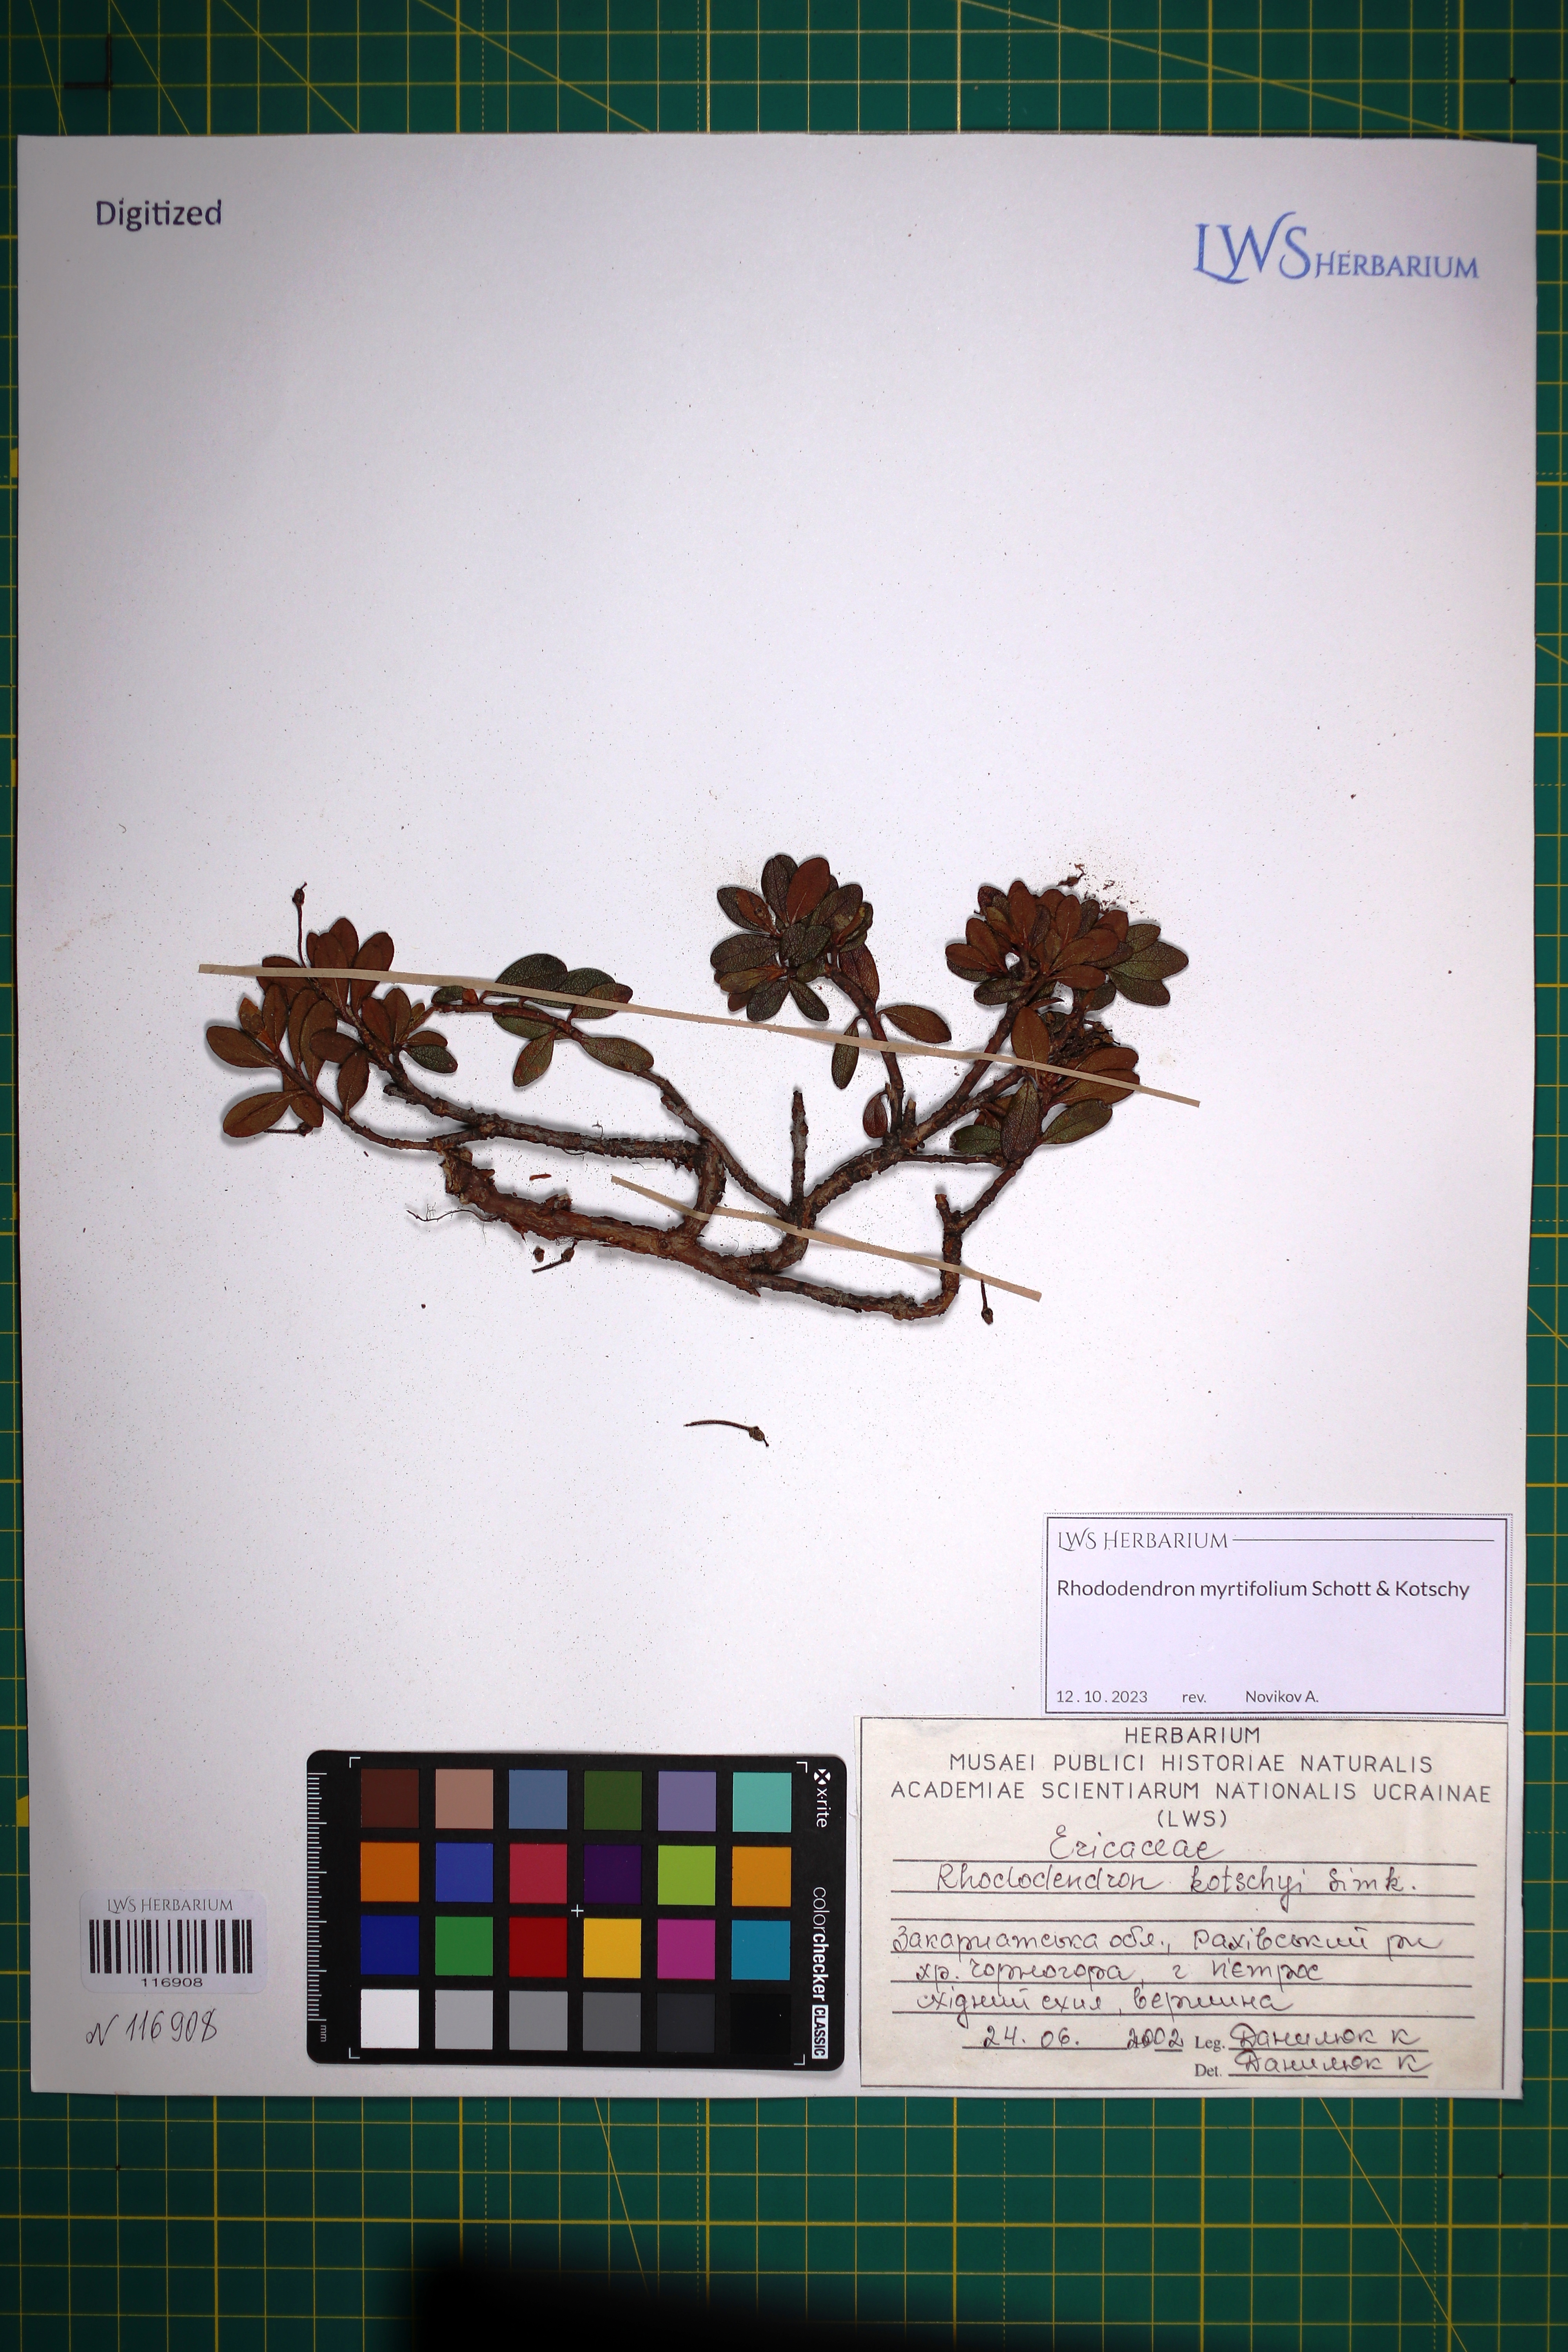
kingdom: Plantae
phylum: Tracheophyta
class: Magnoliopsida
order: Ericales
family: Ericaceae
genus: Rhododendron
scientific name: Rhododendron kotschyi
